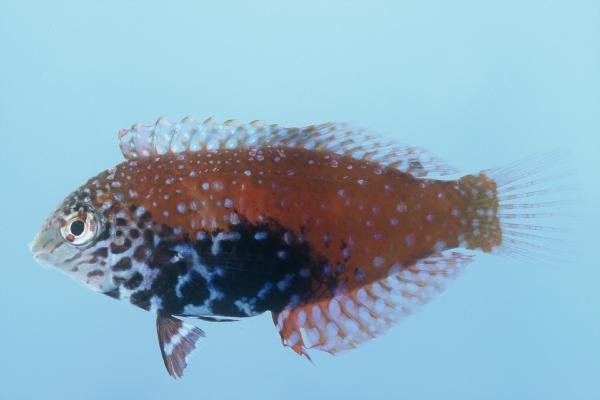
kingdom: Animalia
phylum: Chordata
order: Perciformes
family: Labridae
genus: Macropharyngodon
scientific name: Macropharyngodon bipartitus
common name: Divided wrasse
